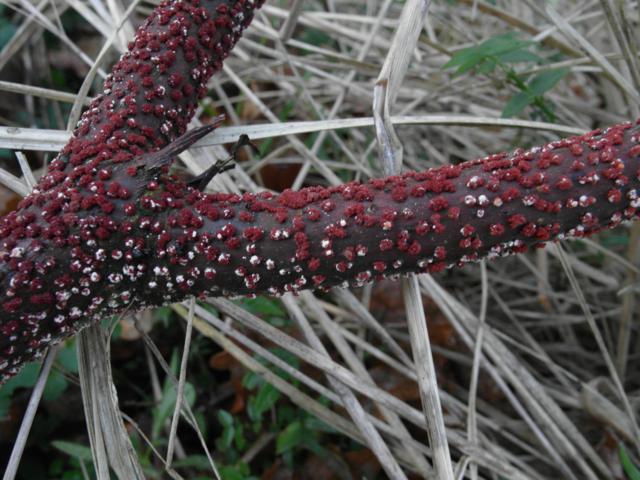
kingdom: Fungi
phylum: Ascomycota
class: Sordariomycetes
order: Hypocreales
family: Nectriaceae
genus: Nectria
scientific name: Nectria cinnabarina
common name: almindelig cinnobersvamp
